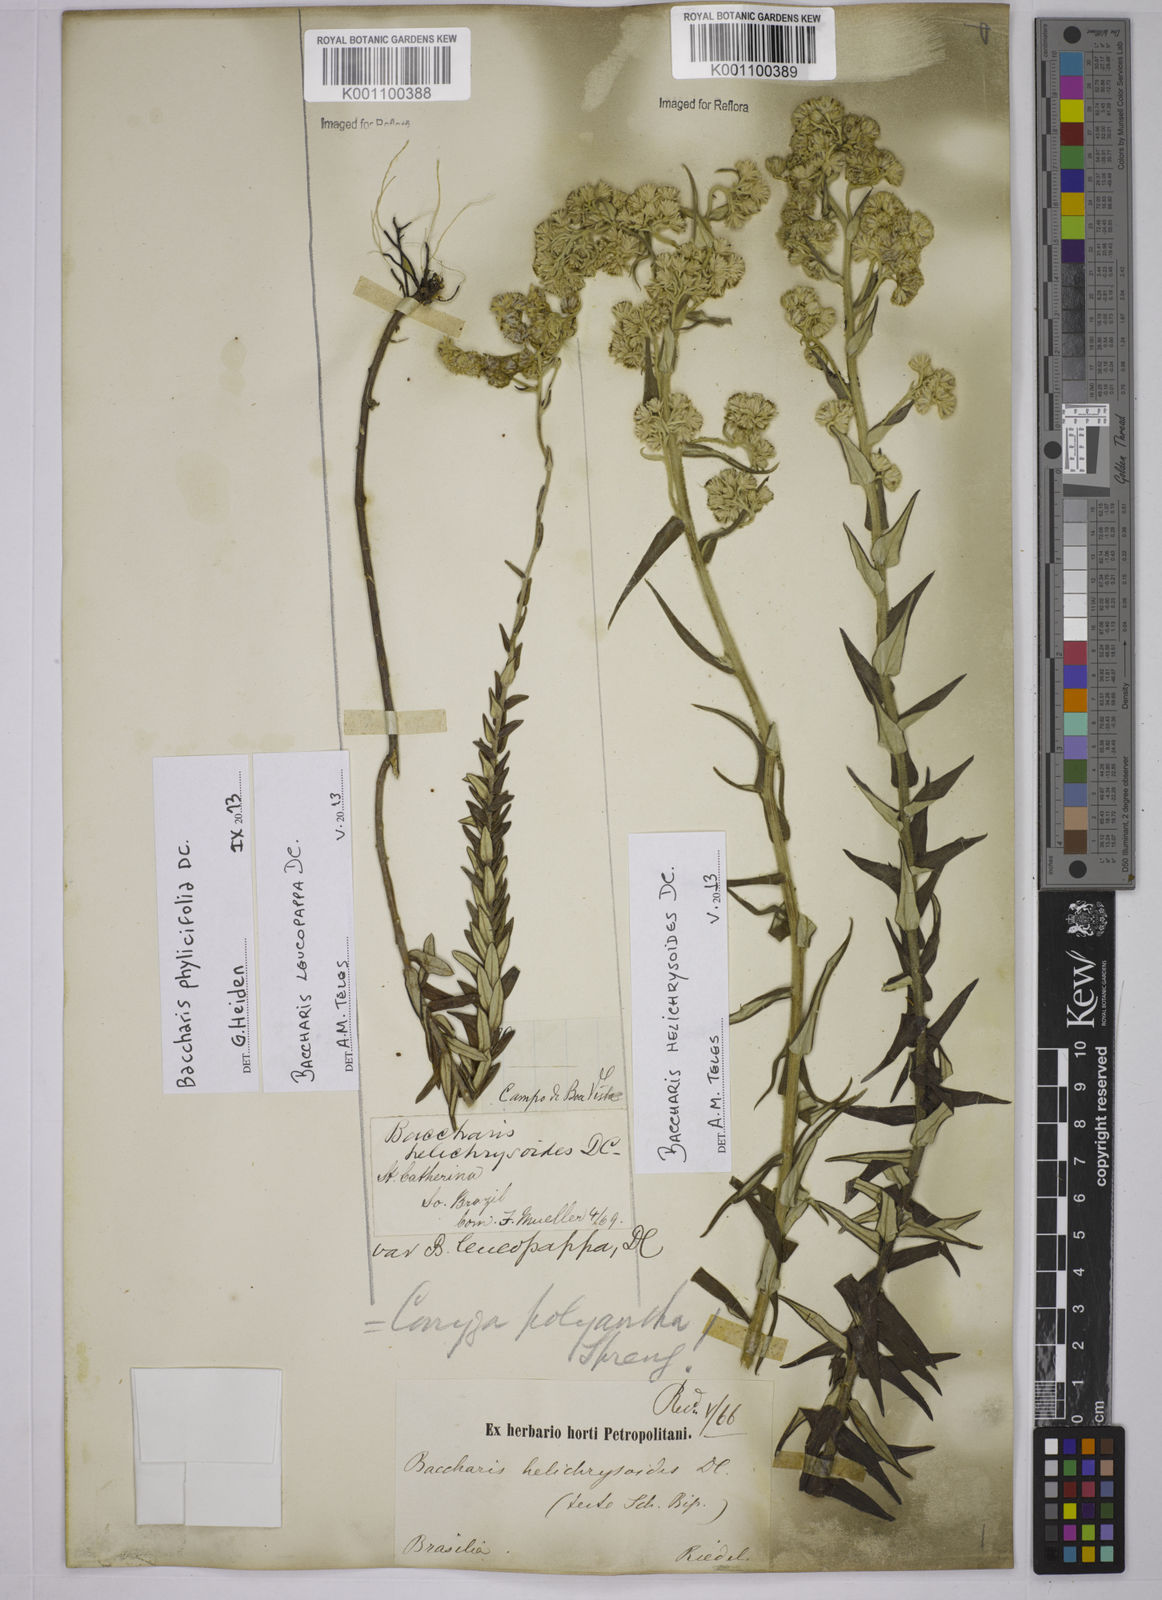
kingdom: Plantae
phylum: Tracheophyta
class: Magnoliopsida
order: Asterales
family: Asteraceae
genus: Baccharis
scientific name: Baccharis leucopappa
